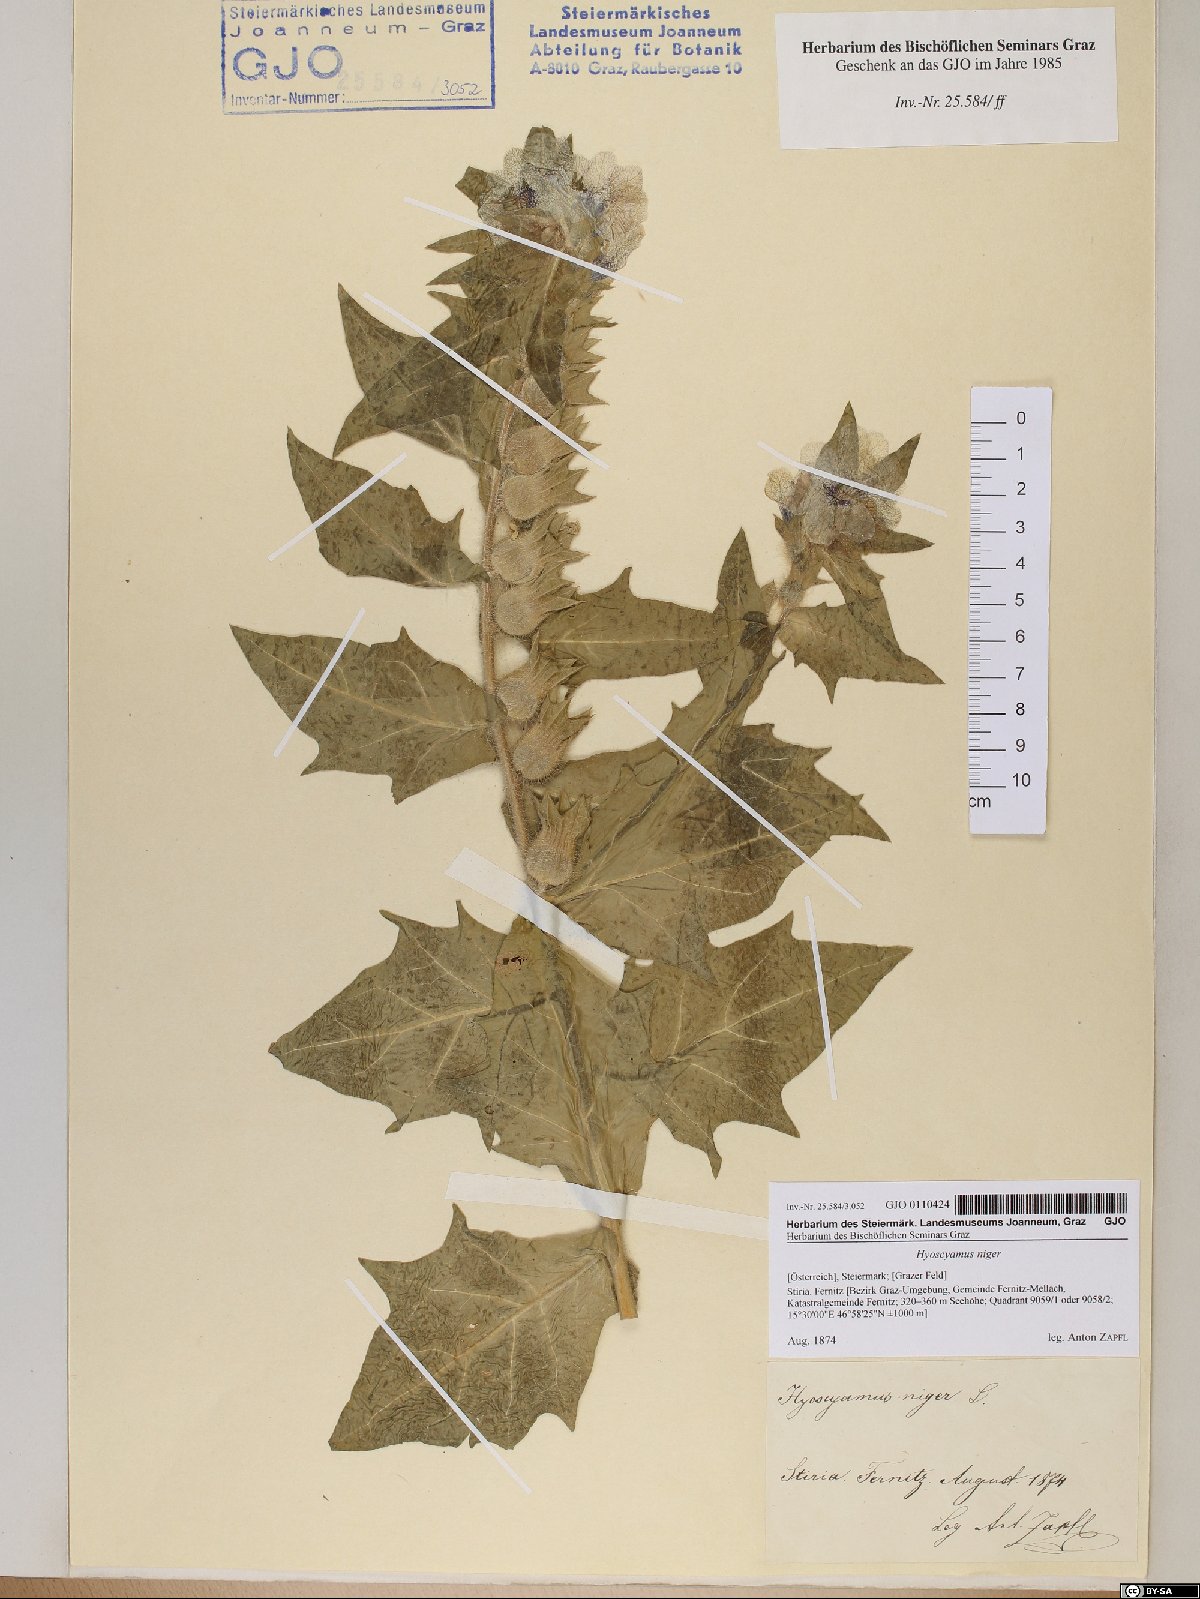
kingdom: Plantae
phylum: Tracheophyta
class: Magnoliopsida
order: Solanales
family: Solanaceae
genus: Hyoscyamus
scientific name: Hyoscyamus niger
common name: Henbane
